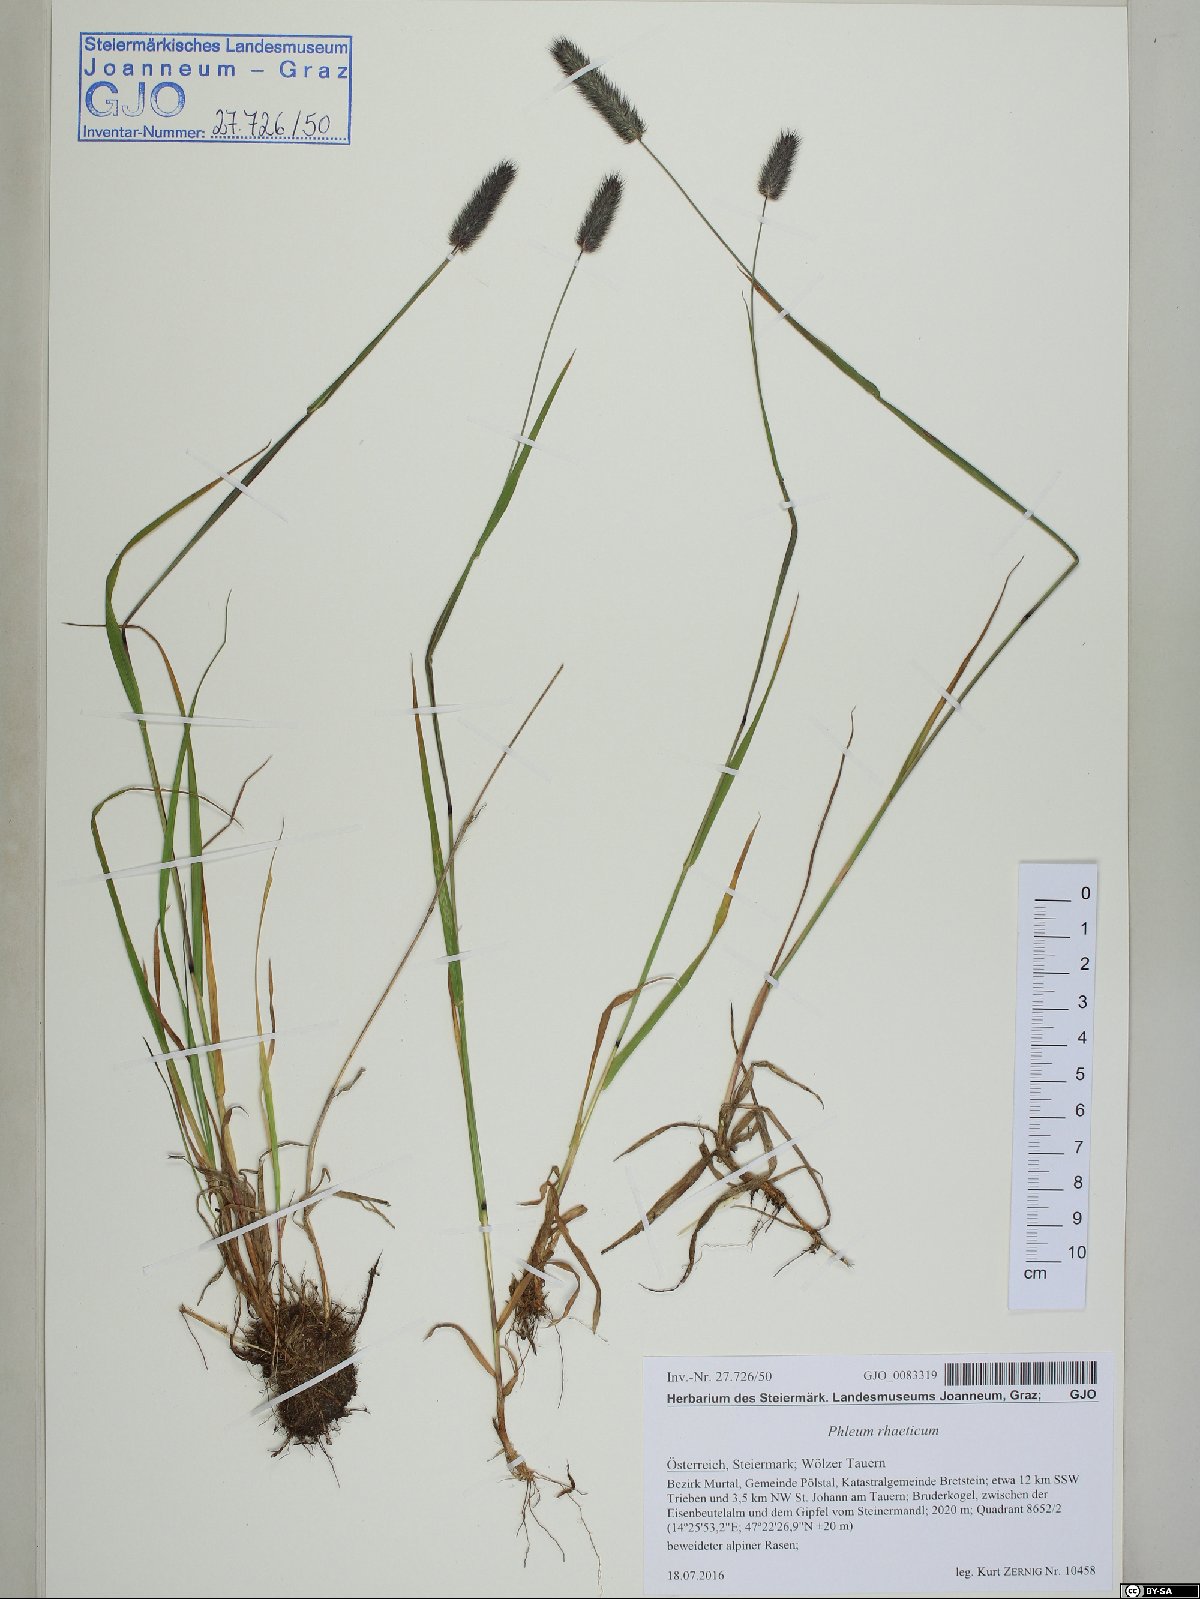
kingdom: Plantae
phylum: Tracheophyta
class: Liliopsida
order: Poales
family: Poaceae
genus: Phleum
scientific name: Phleum alpinum
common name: Alpine cat's-tail
